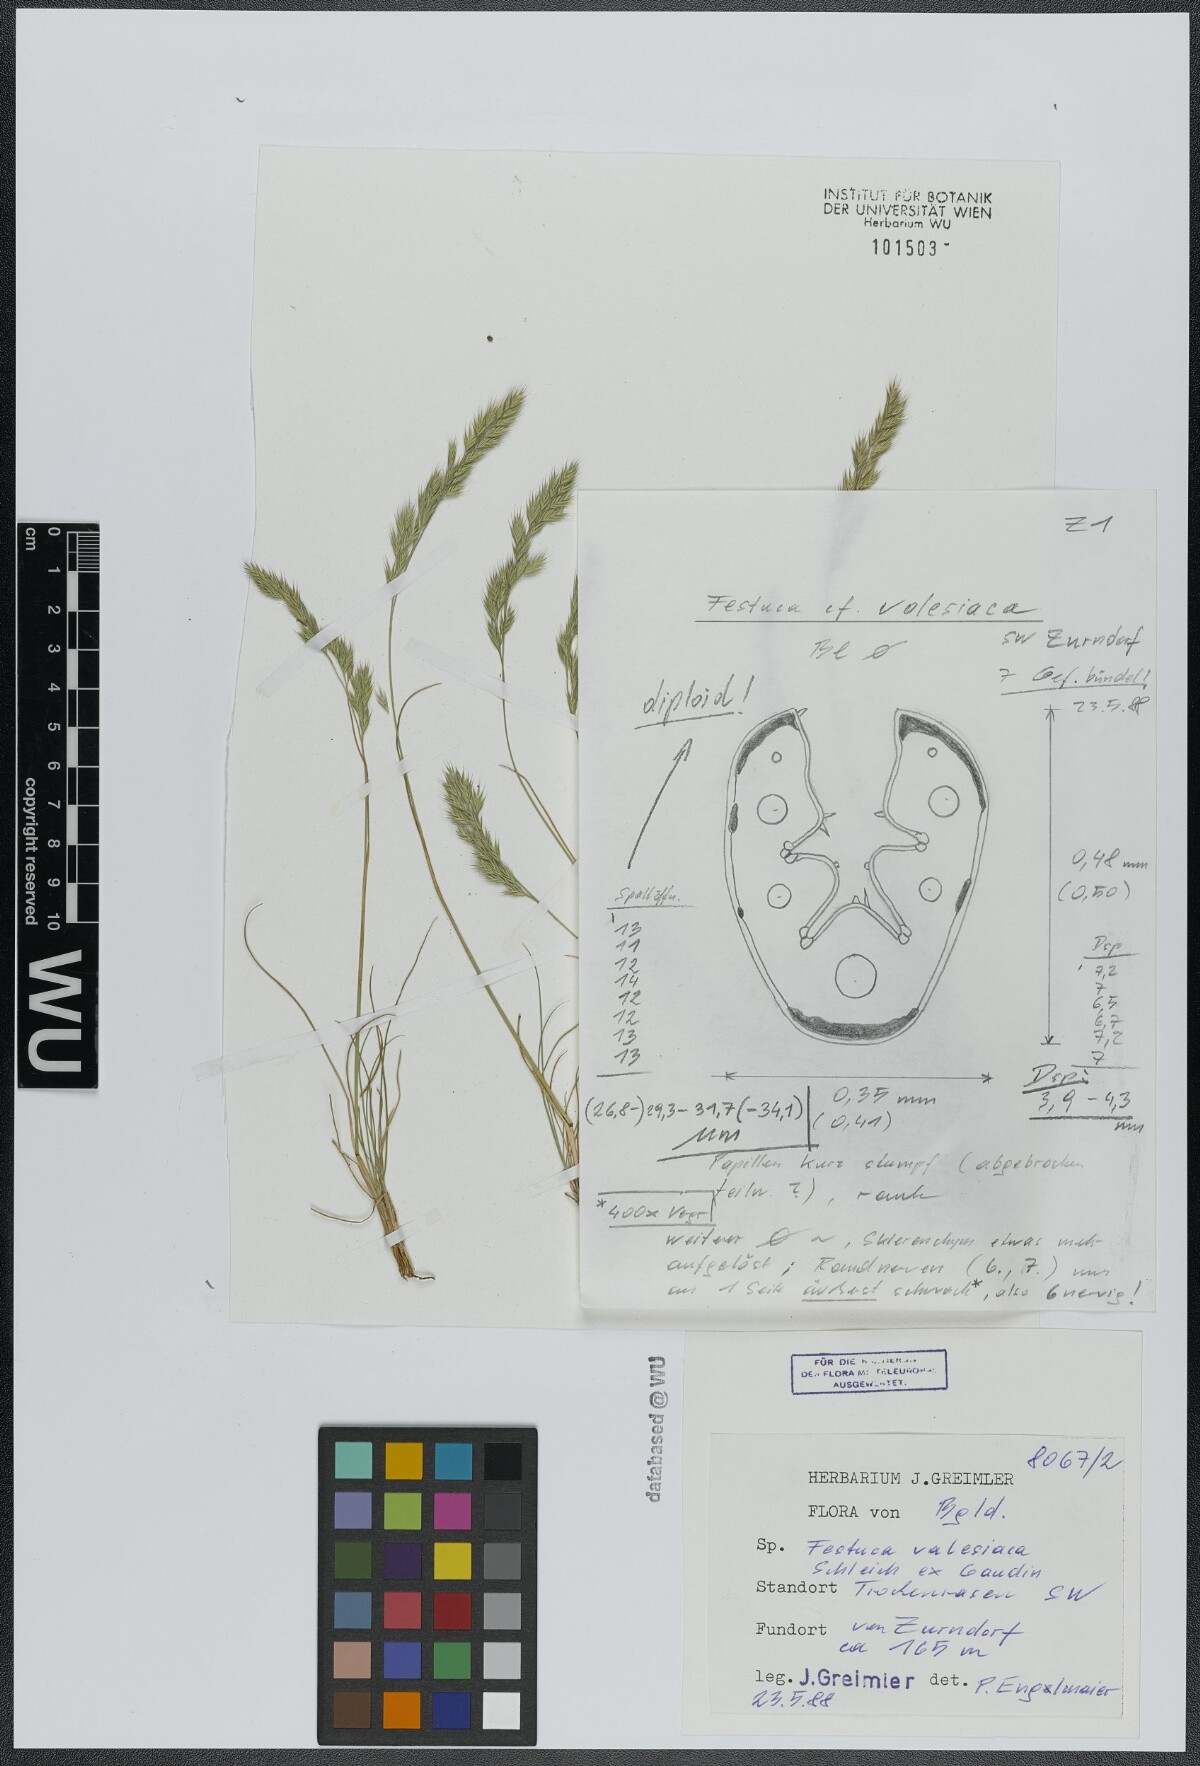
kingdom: Plantae
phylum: Tracheophyta
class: Liliopsida
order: Poales
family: Poaceae
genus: Festuca
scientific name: Festuca valesiaca
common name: Volga fescue
